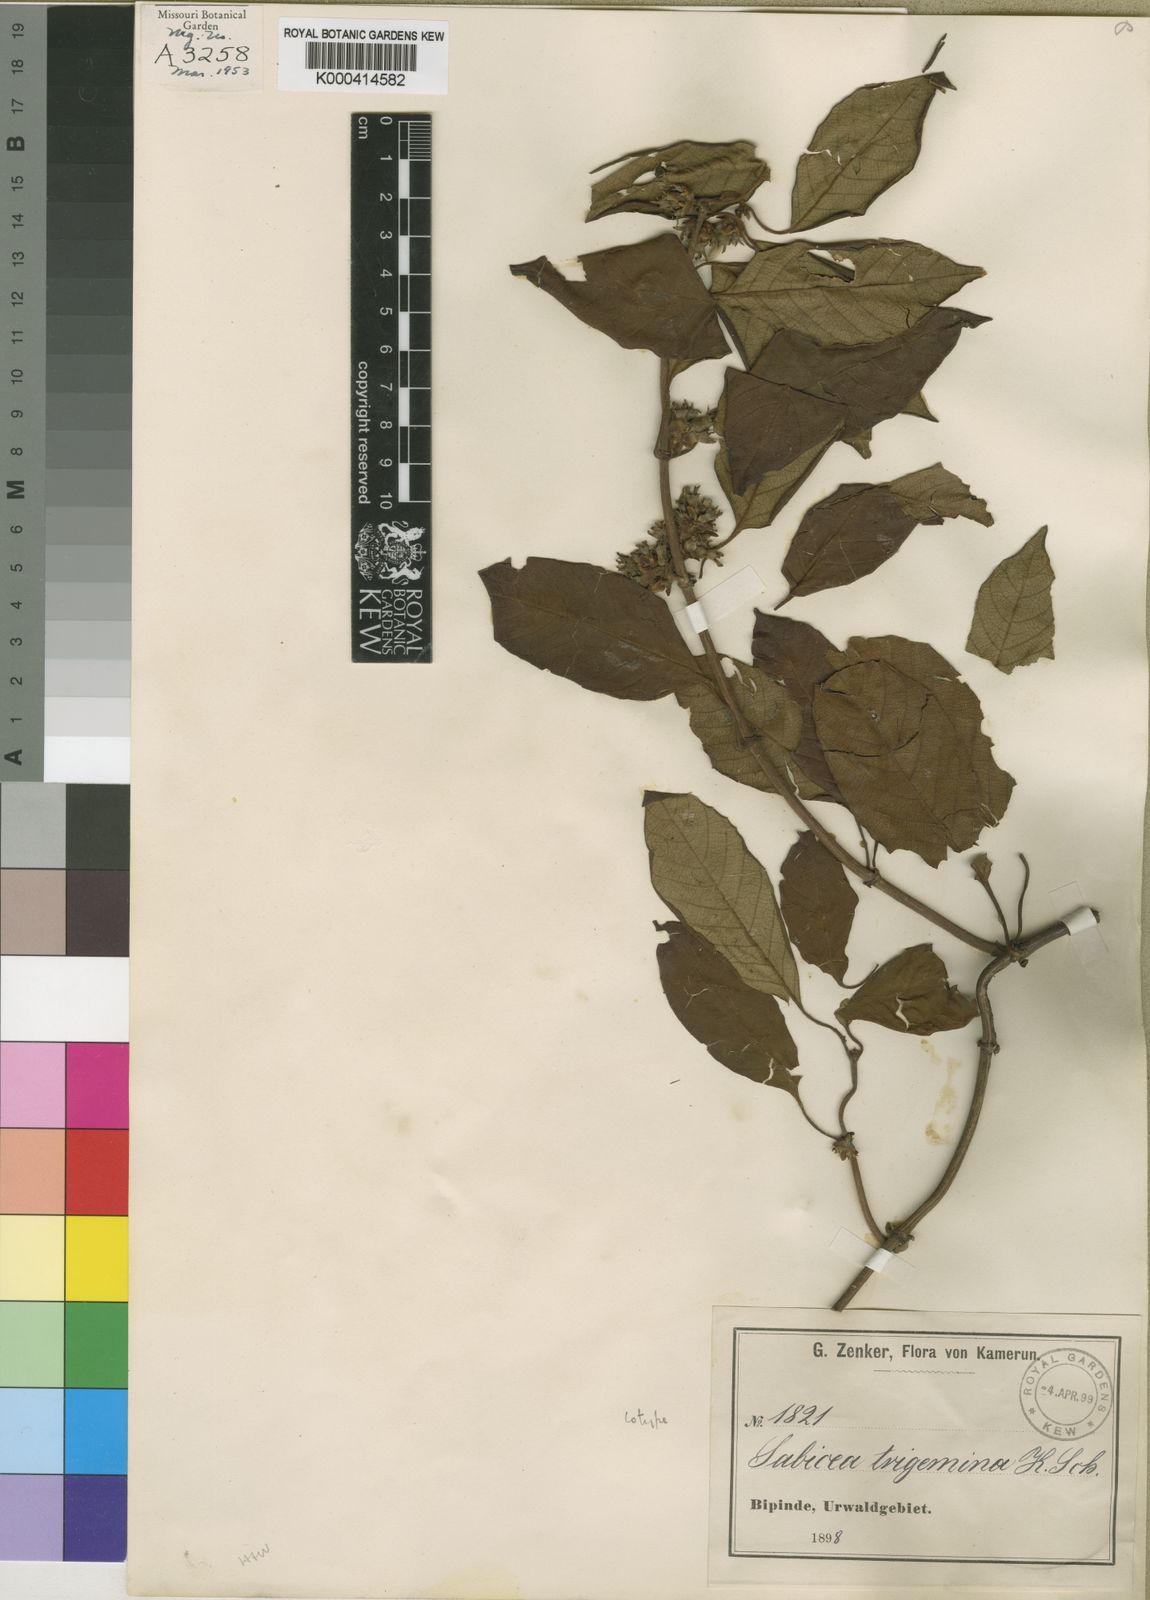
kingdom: Plantae
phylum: Tracheophyta
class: Magnoliopsida
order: Gentianales
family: Rubiaceae
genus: Sabicea
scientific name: Sabicea trigemina
